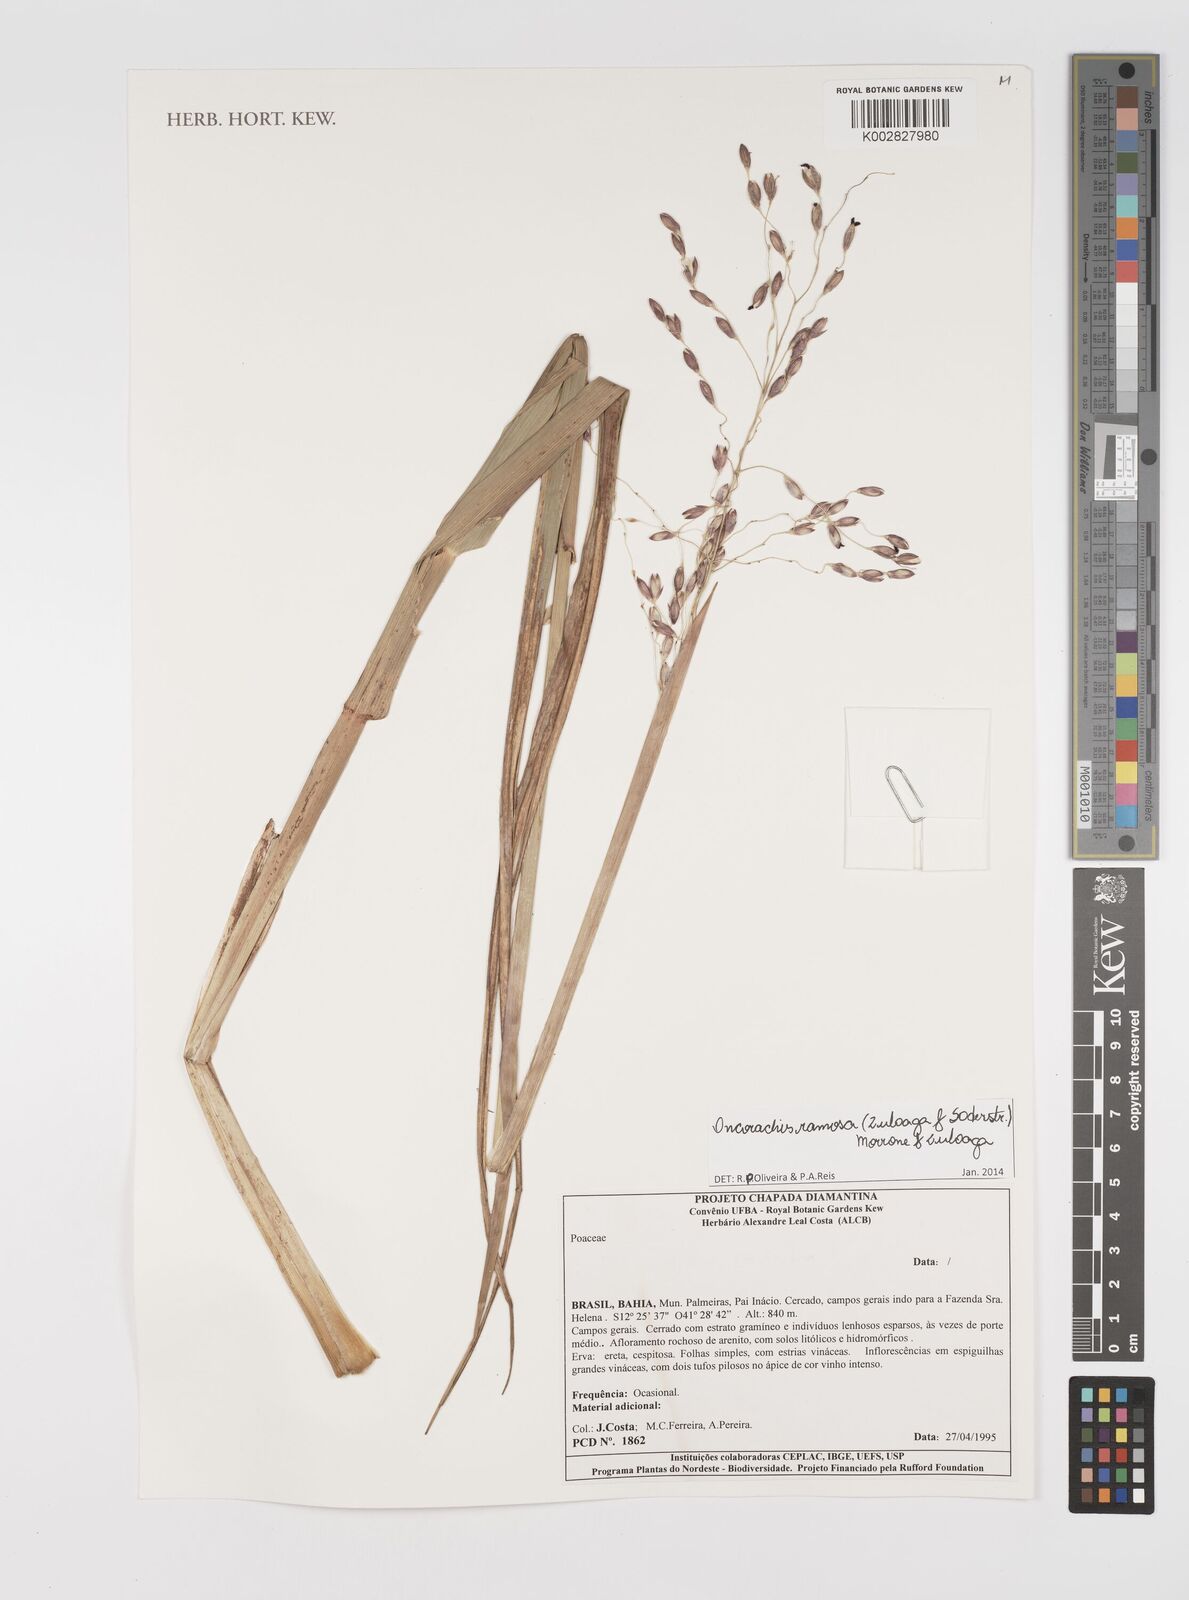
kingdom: Plantae
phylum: Tracheophyta
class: Liliopsida
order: Poales
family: Poaceae
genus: Oncorachis
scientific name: Oncorachis ramosa
